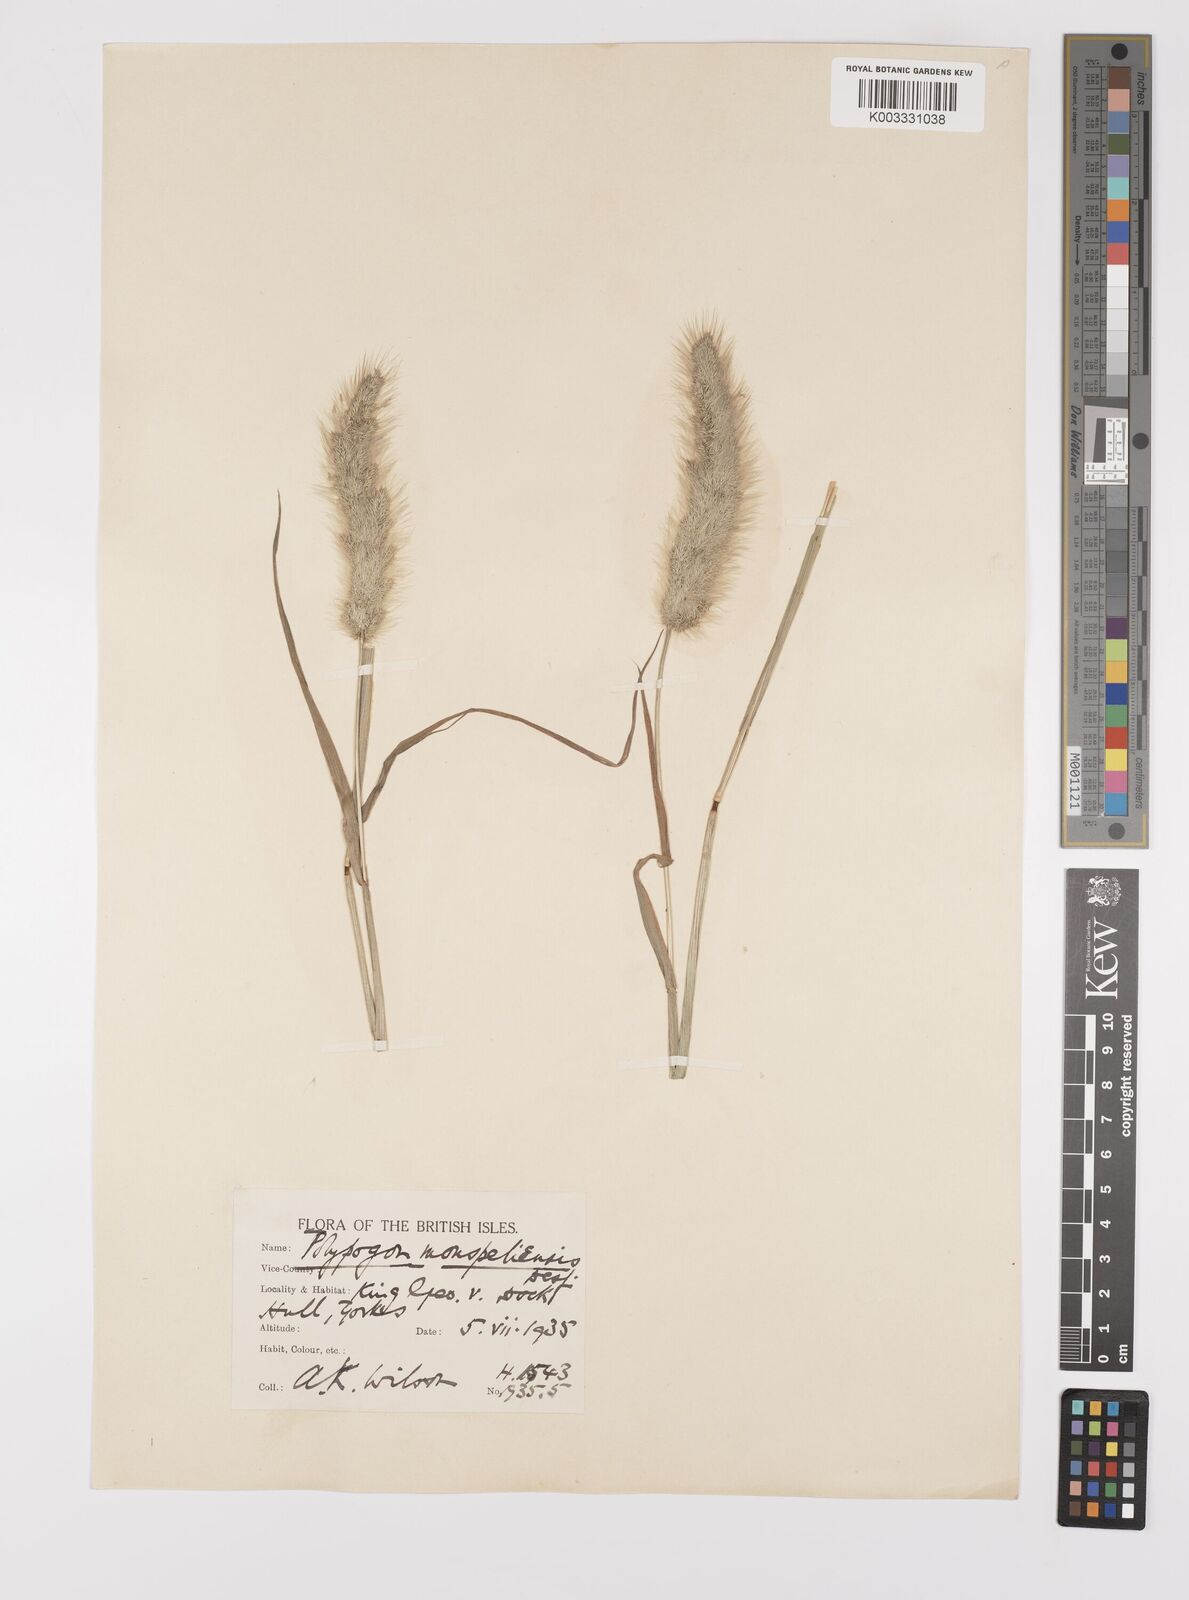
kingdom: Plantae
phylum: Tracheophyta
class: Liliopsida
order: Poales
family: Poaceae
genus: Polypogon
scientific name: Polypogon monspeliensis
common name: Annual rabbitsfoot grass
